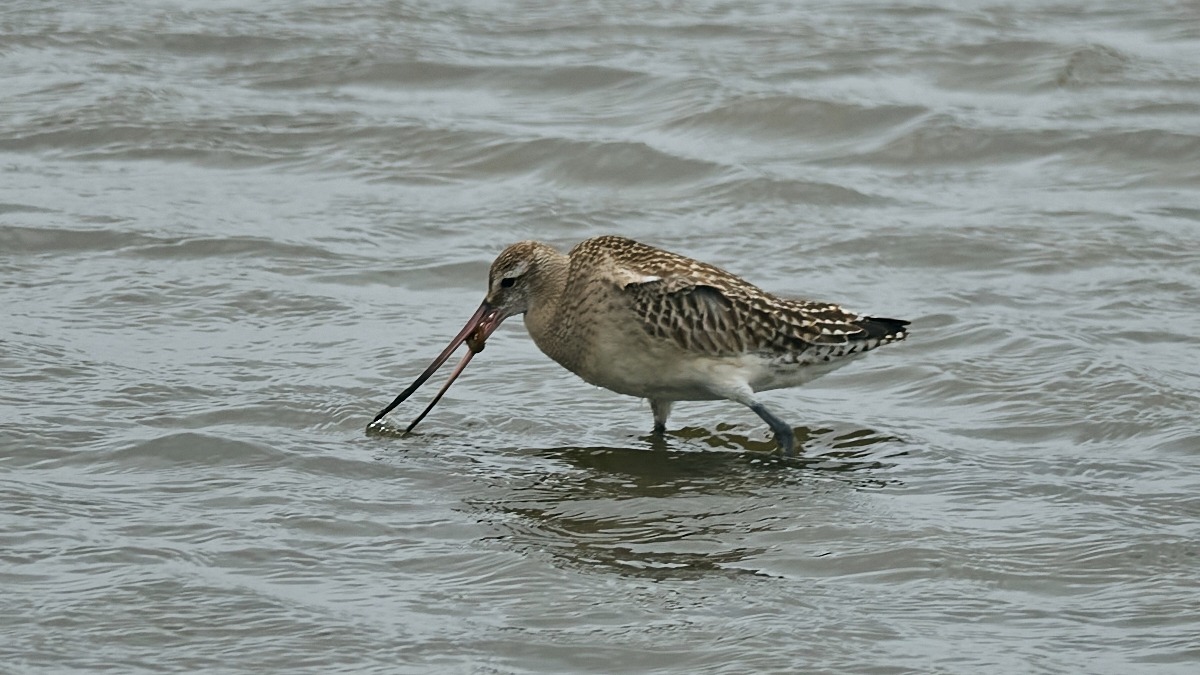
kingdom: Animalia
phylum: Chordata
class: Aves
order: Charadriiformes
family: Scolopacidae
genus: Limosa
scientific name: Limosa lapponica
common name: Lille kobbersneppe
